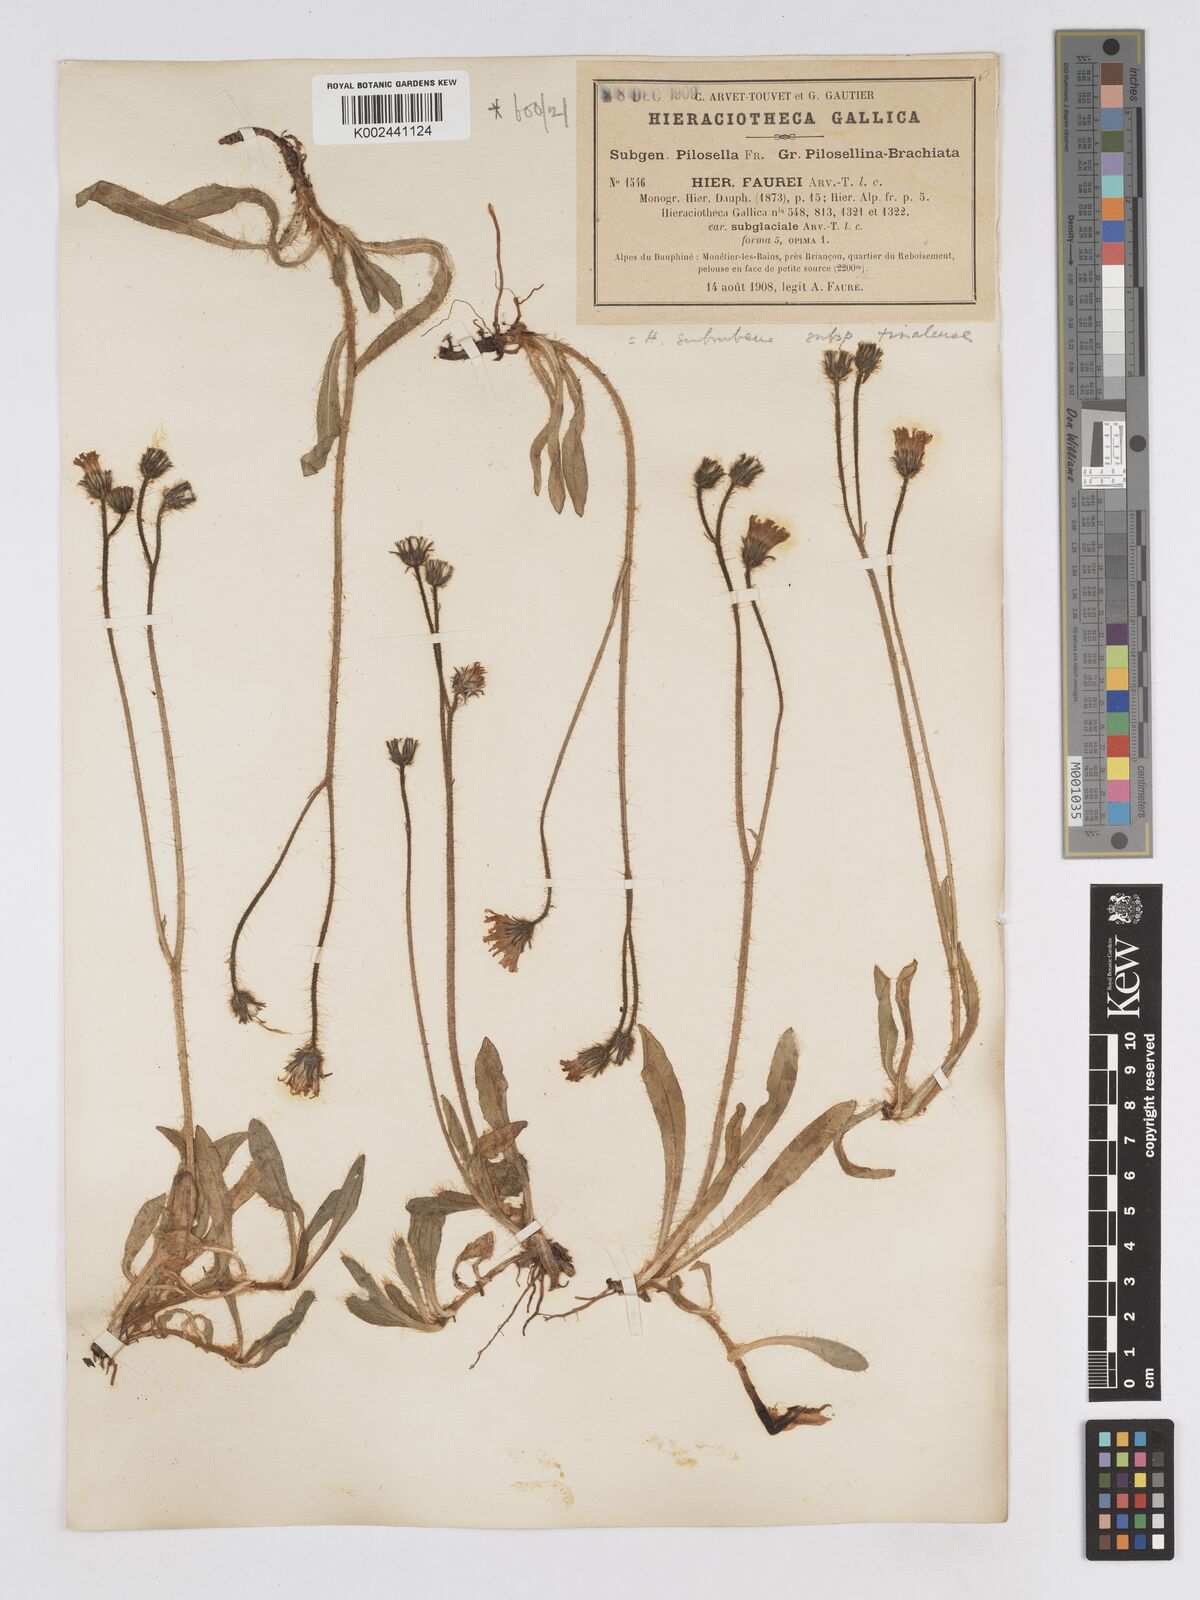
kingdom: Plantae
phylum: Tracheophyta
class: Magnoliopsida
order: Asterales
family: Asteraceae
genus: Pilosella
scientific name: Pilosella subrubens
